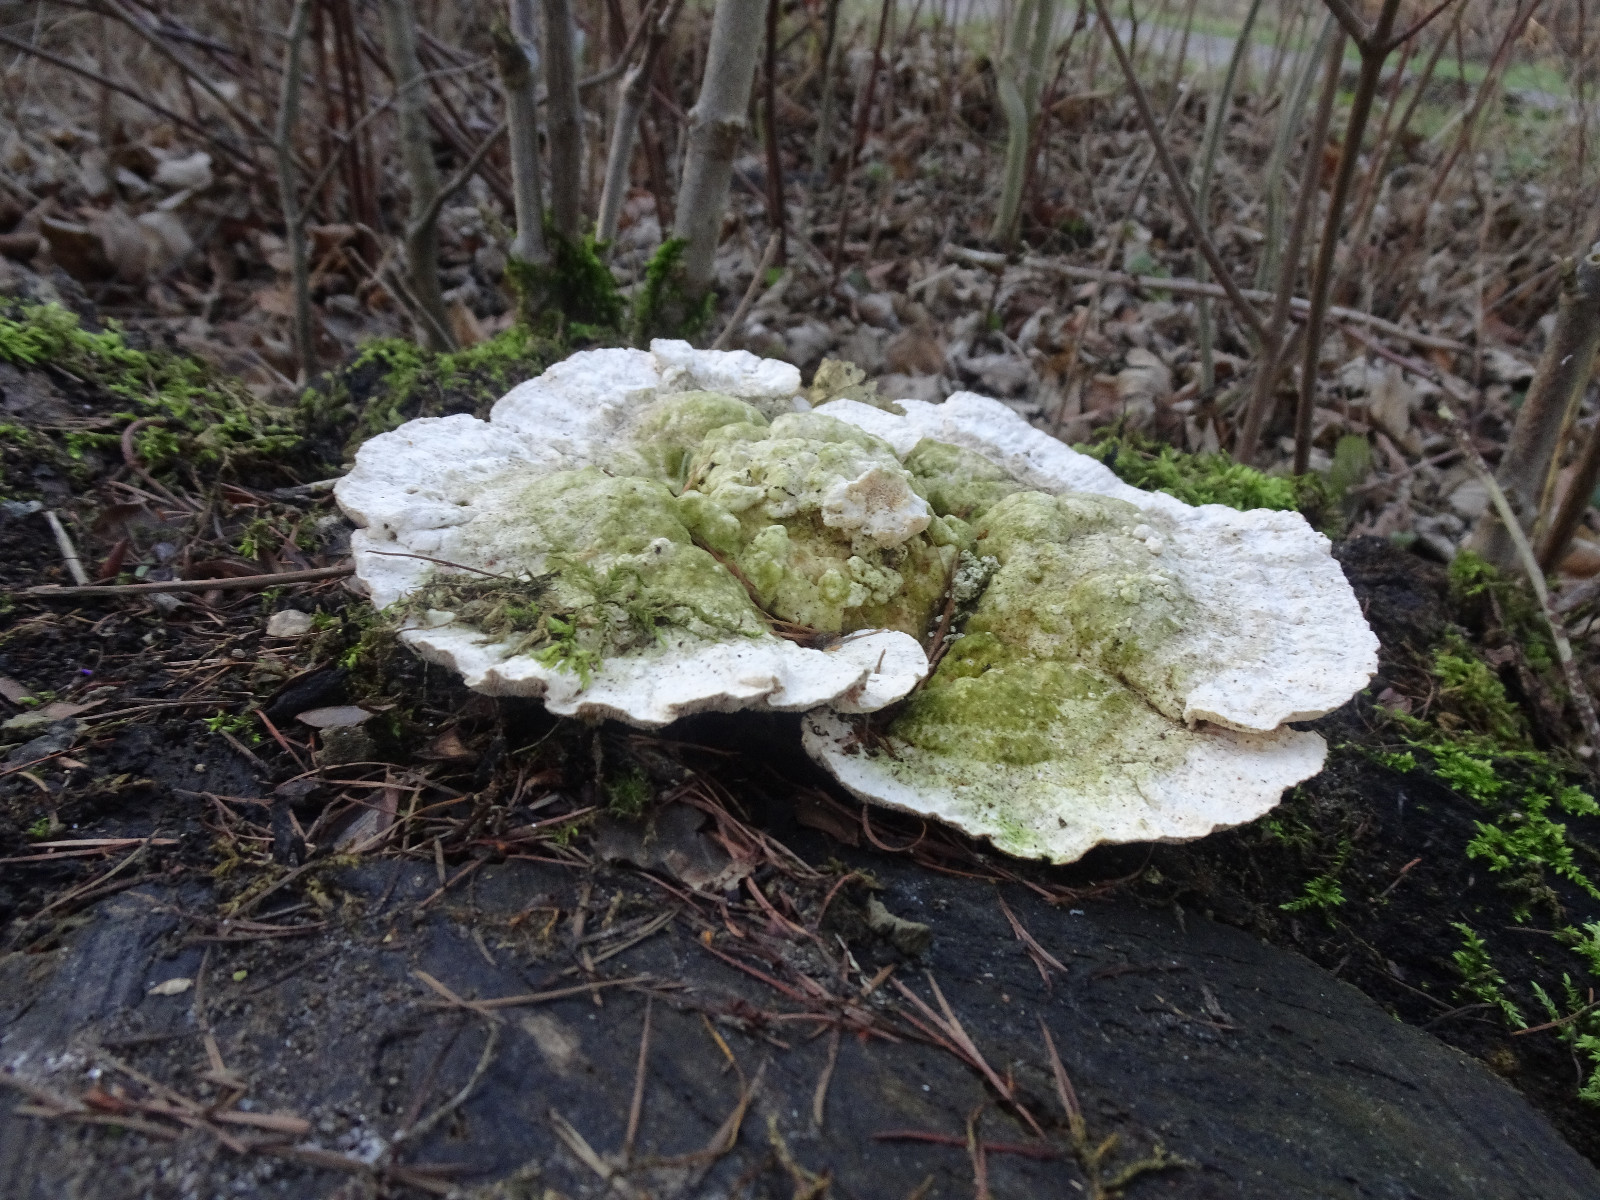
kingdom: Fungi
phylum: Basidiomycota
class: Agaricomycetes
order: Polyporales
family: Polyporaceae
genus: Trametes
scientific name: Trametes gibbosa
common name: puklet læderporesvamp
